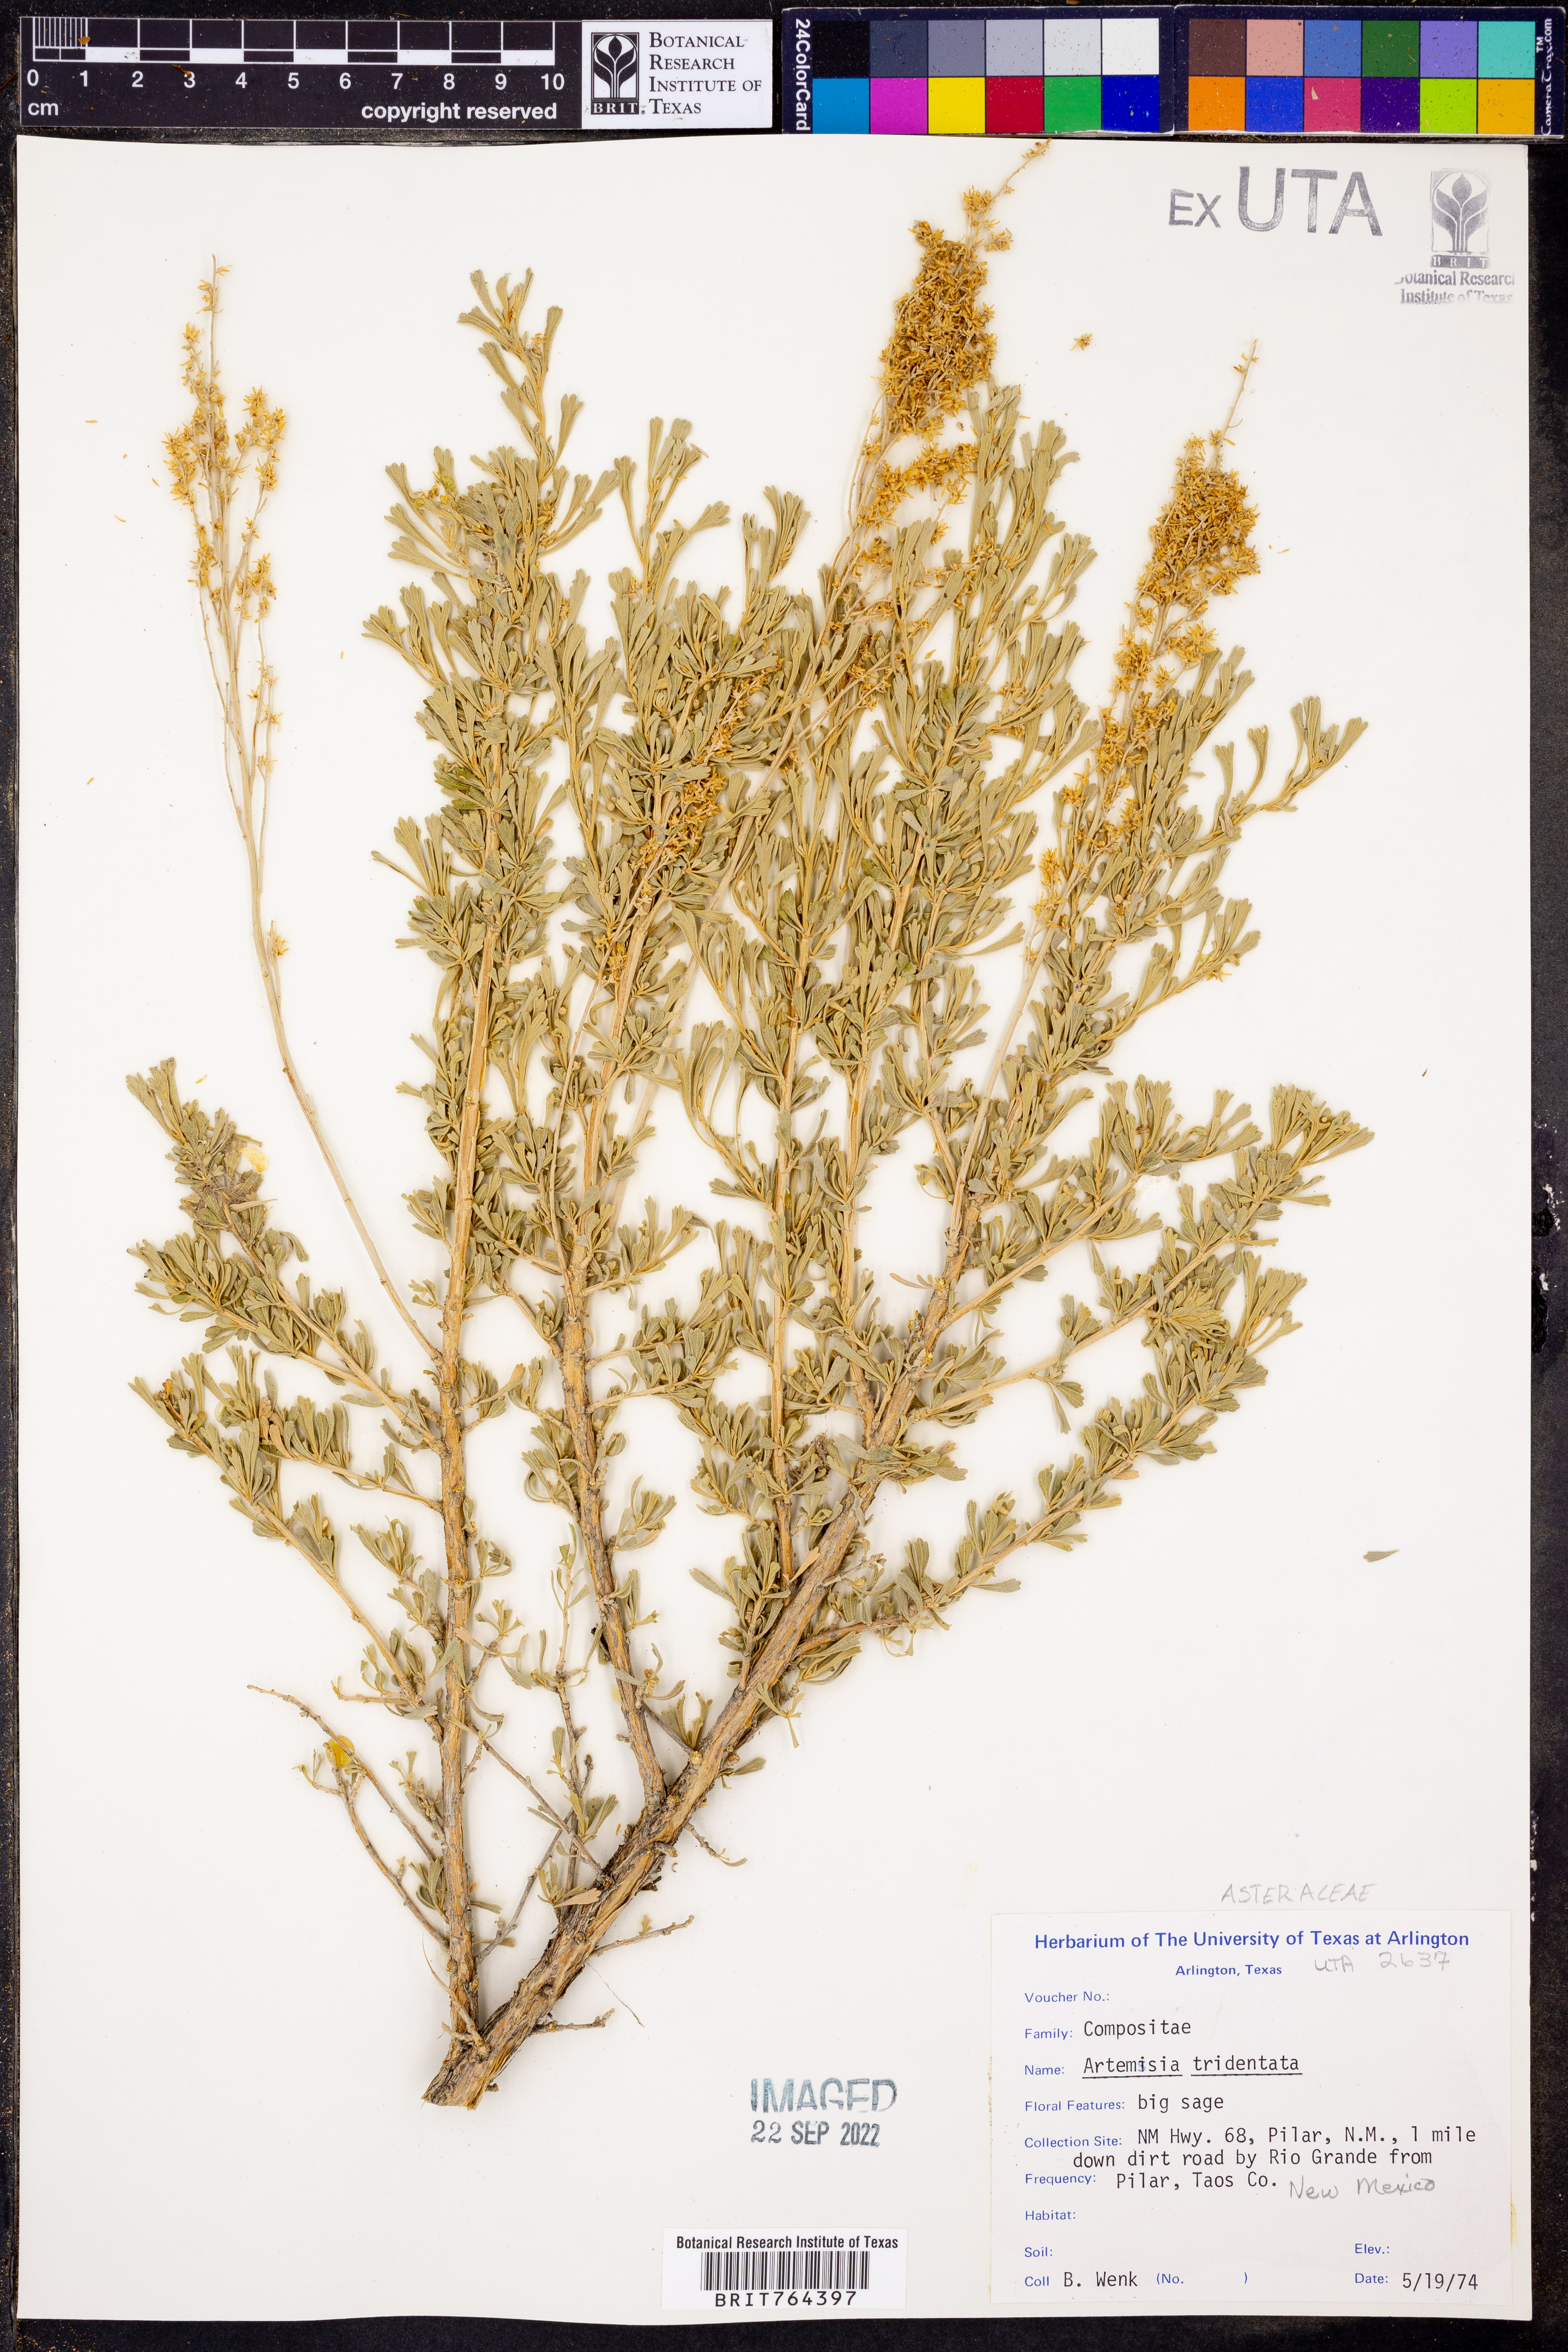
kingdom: Plantae
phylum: Tracheophyta
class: Magnoliopsida
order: Asterales
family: Asteraceae
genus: Artemisia
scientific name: Artemisia tridentata
